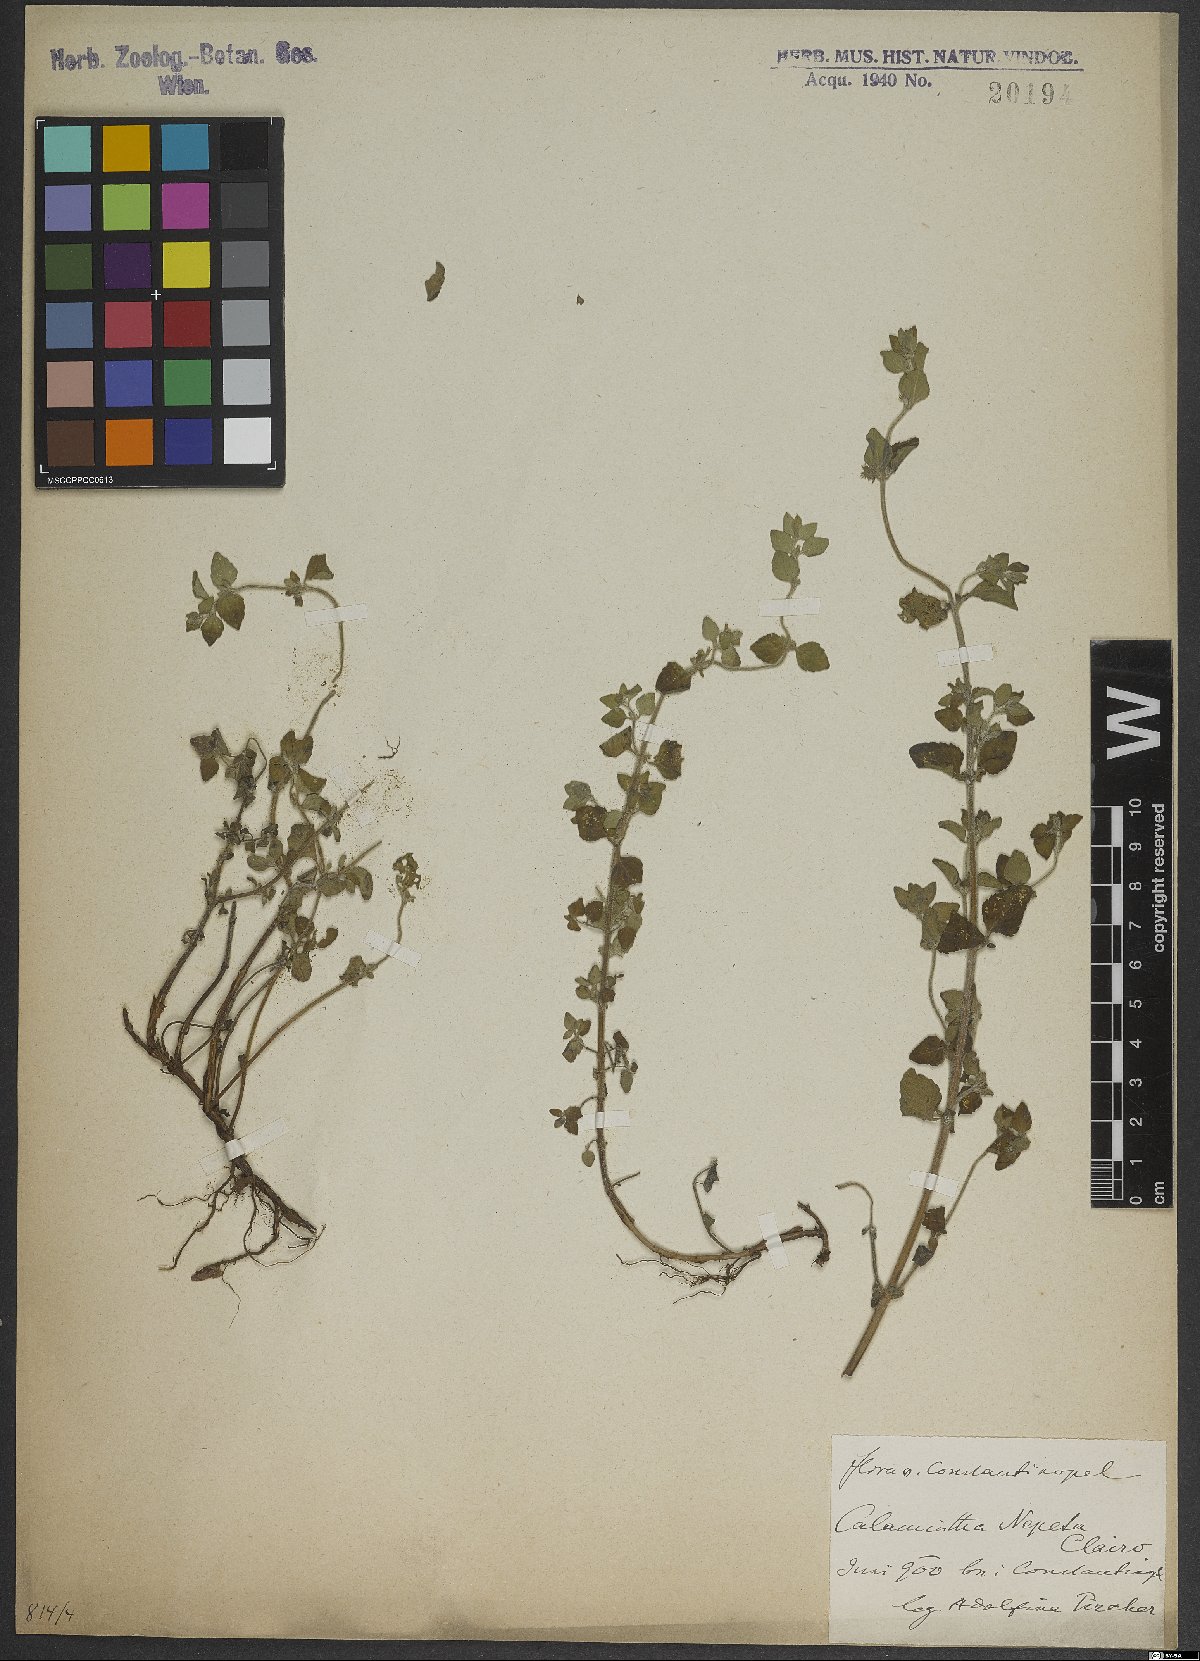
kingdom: Plantae
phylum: Tracheophyta
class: Magnoliopsida
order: Lamiales
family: Lamiaceae
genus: Clinopodium
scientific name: Clinopodium nepeta
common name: Lesser calamint
